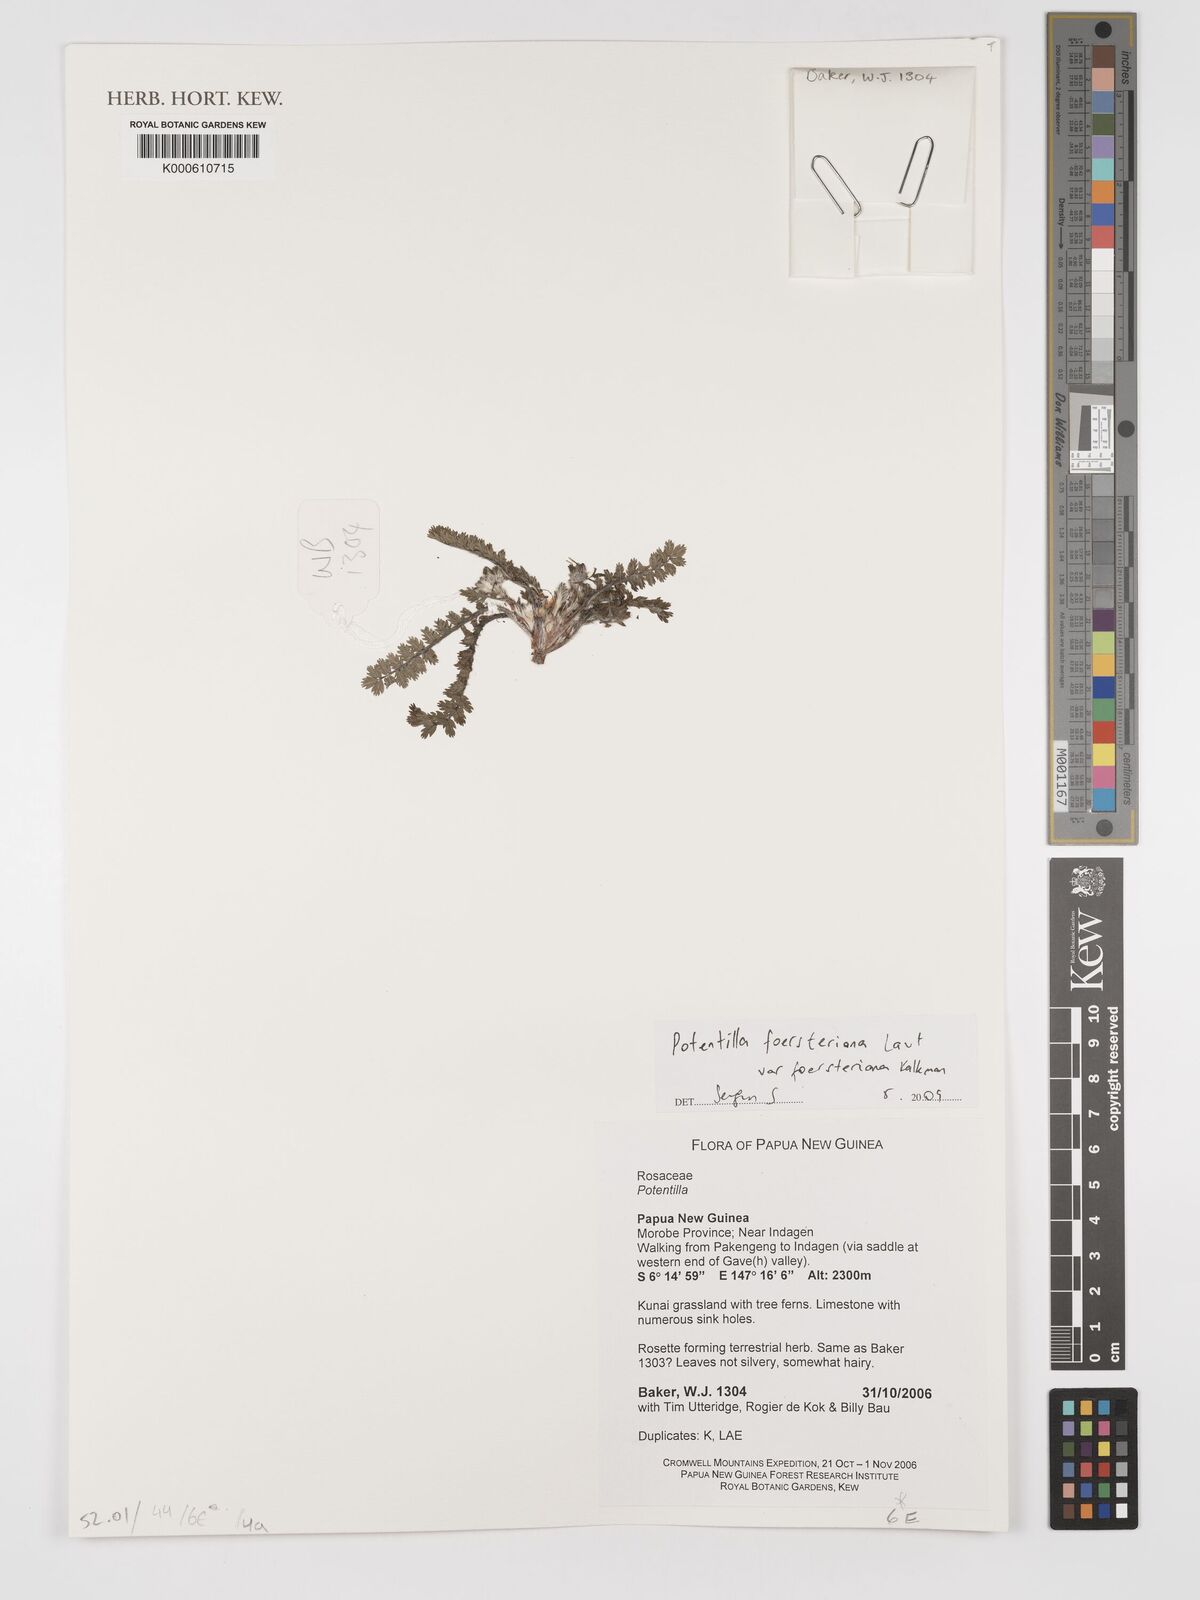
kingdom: Plantae
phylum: Tracheophyta
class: Magnoliopsida
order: Rosales
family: Rosaceae
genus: Potentilla
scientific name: Potentilla foersteriana
